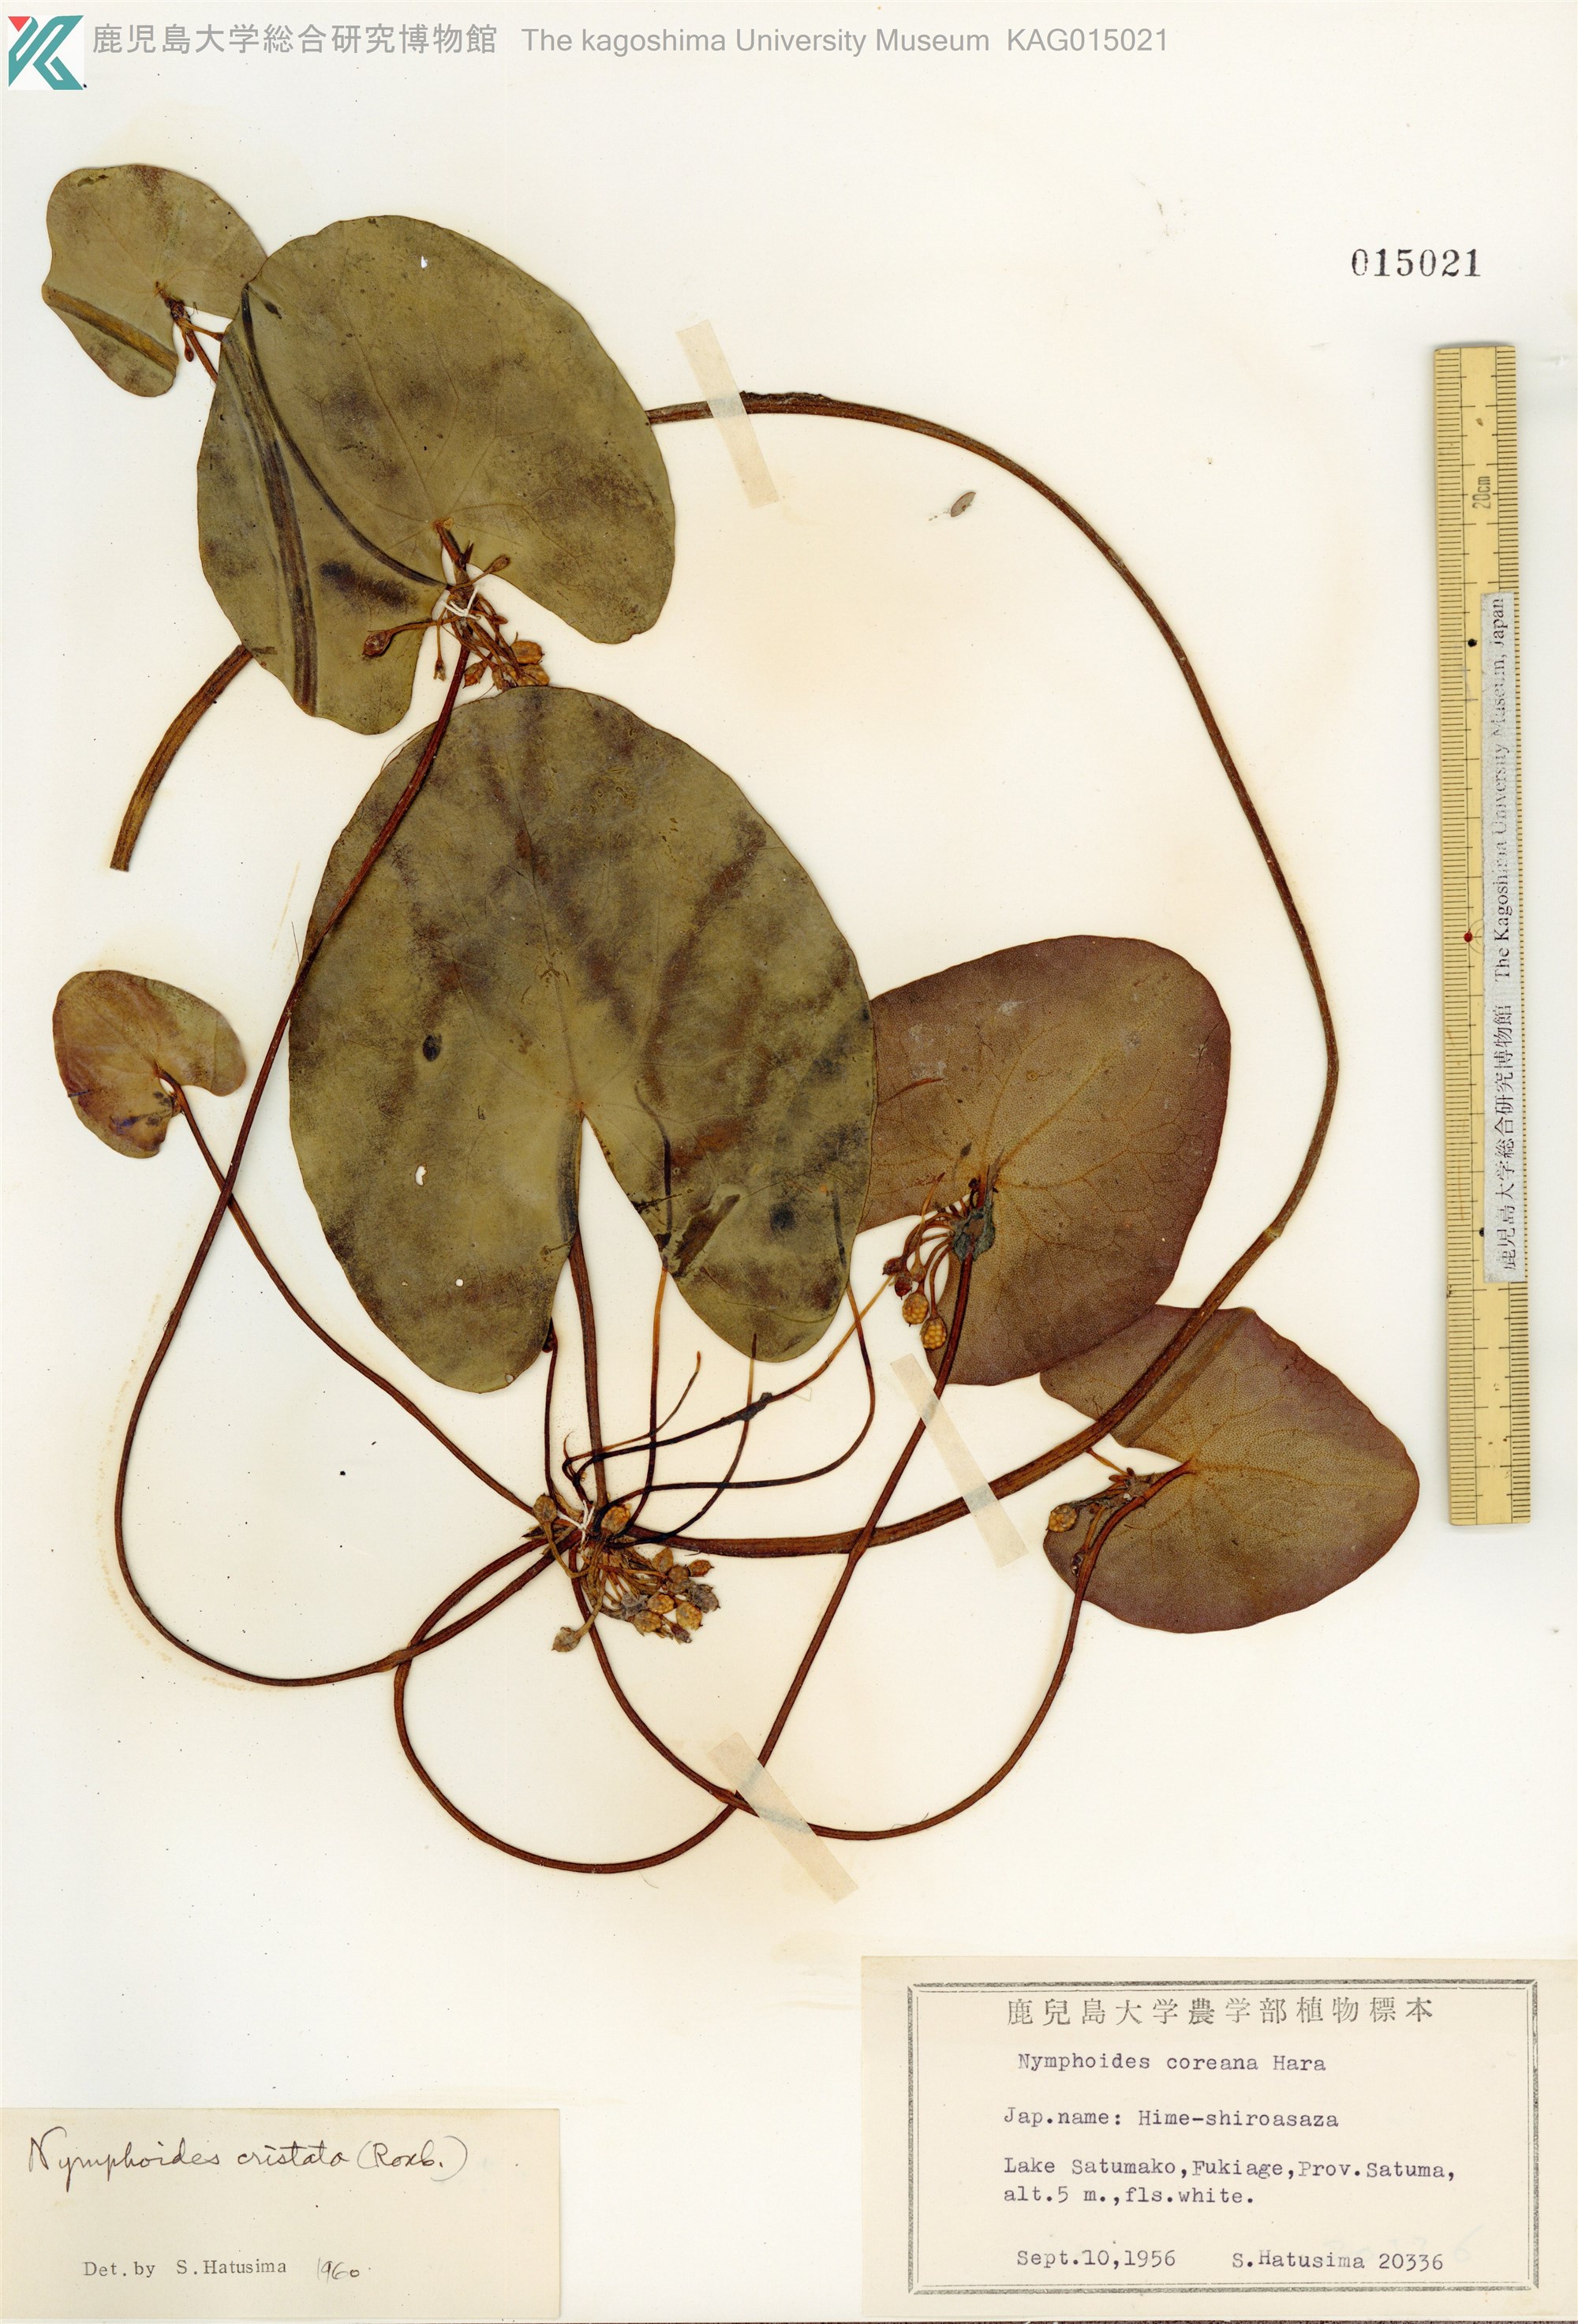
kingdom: Plantae
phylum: Tracheophyta
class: Magnoliopsida
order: Asterales
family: Menyanthaceae
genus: Nymphoides
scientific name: Nymphoides coreana
